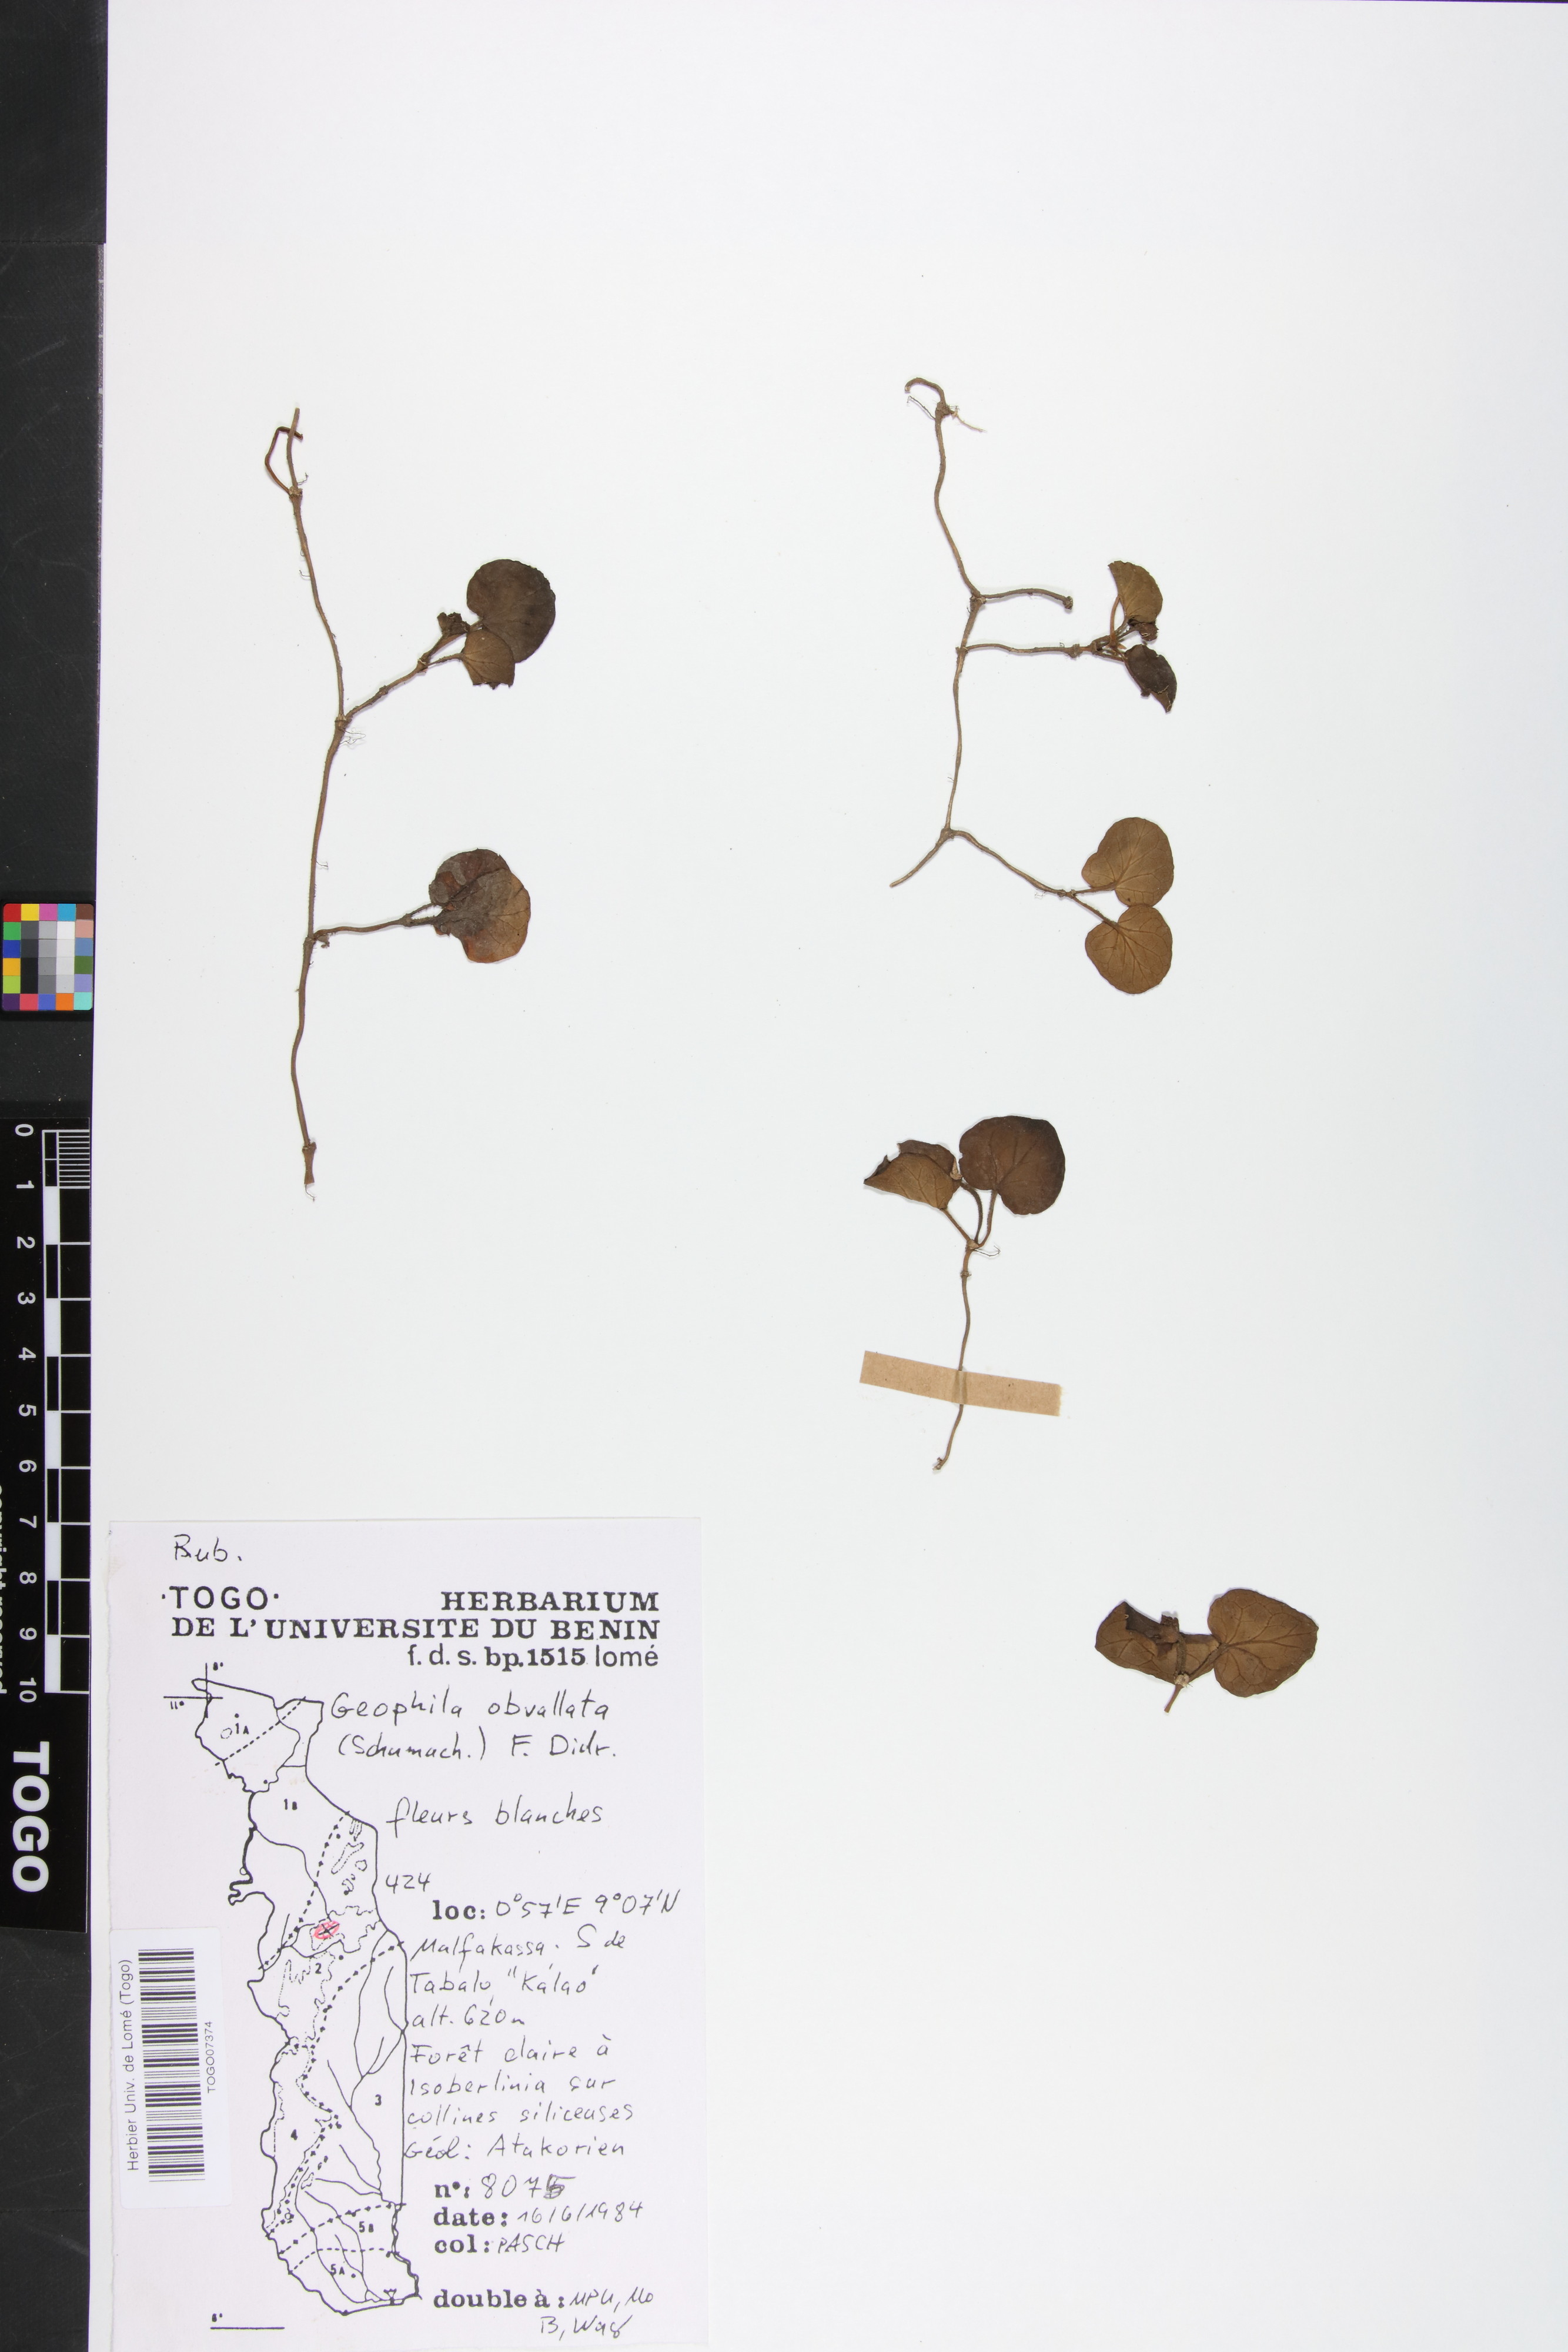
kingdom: Plantae
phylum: Tracheophyta
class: Magnoliopsida
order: Gentianales
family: Rubiaceae
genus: Geophila
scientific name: Geophila obvallata
